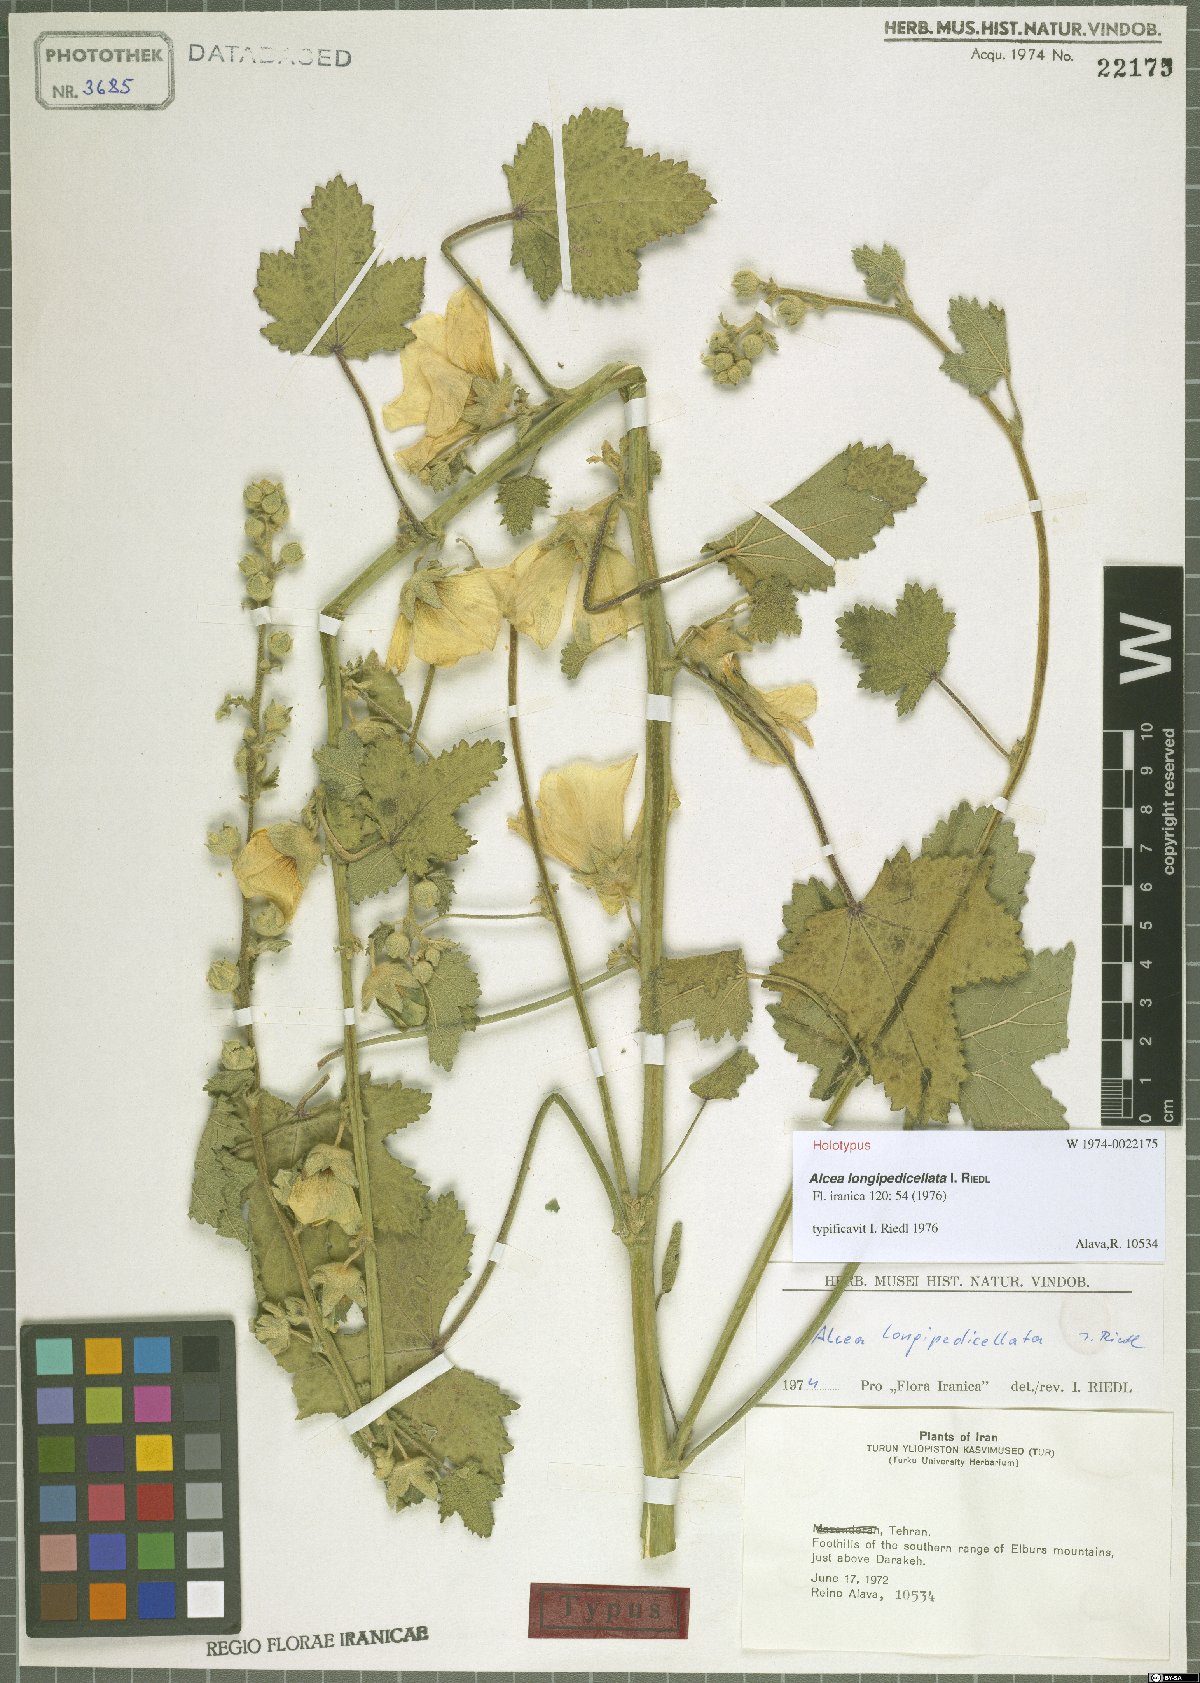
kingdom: Plantae
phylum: Tracheophyta
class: Magnoliopsida
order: Malvales
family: Malvaceae
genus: Alcea
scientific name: Alcea longipedicellata
